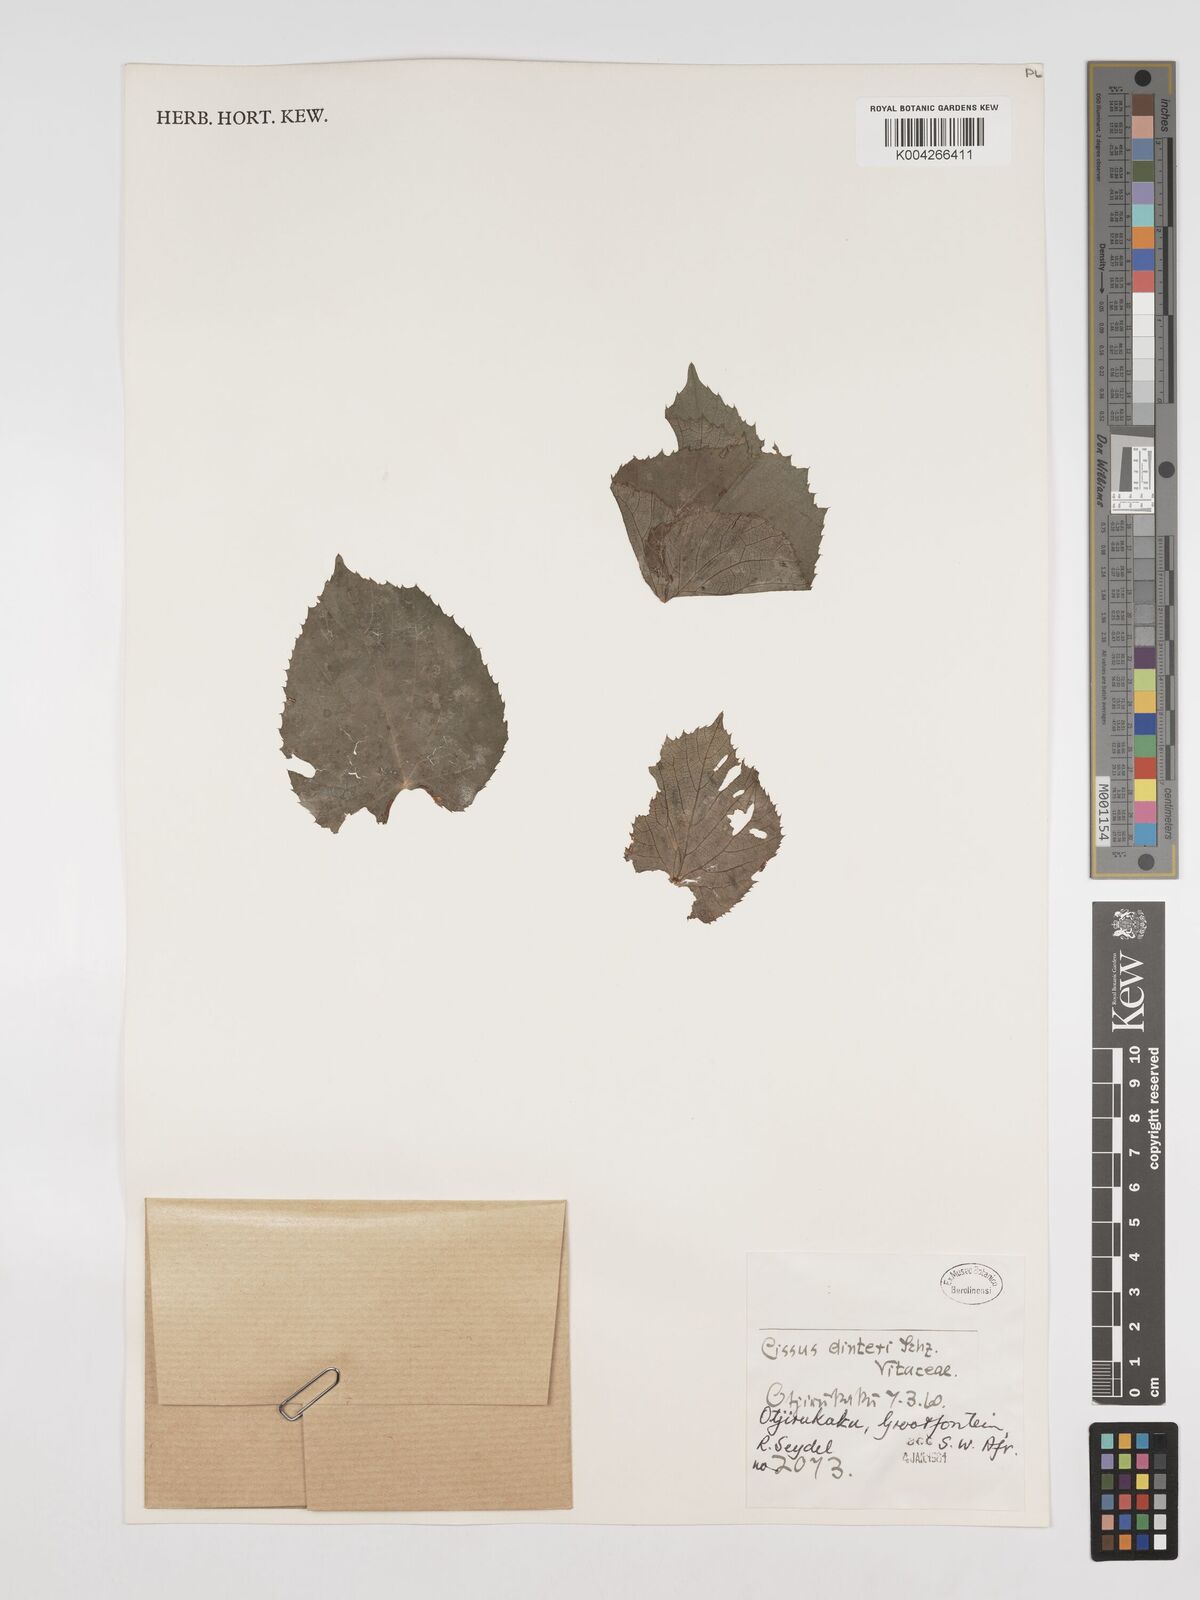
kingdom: Plantae
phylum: Tracheophyta
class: Magnoliopsida
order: Vitales
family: Vitaceae
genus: Cissus
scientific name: Cissus nymphaeifolia
